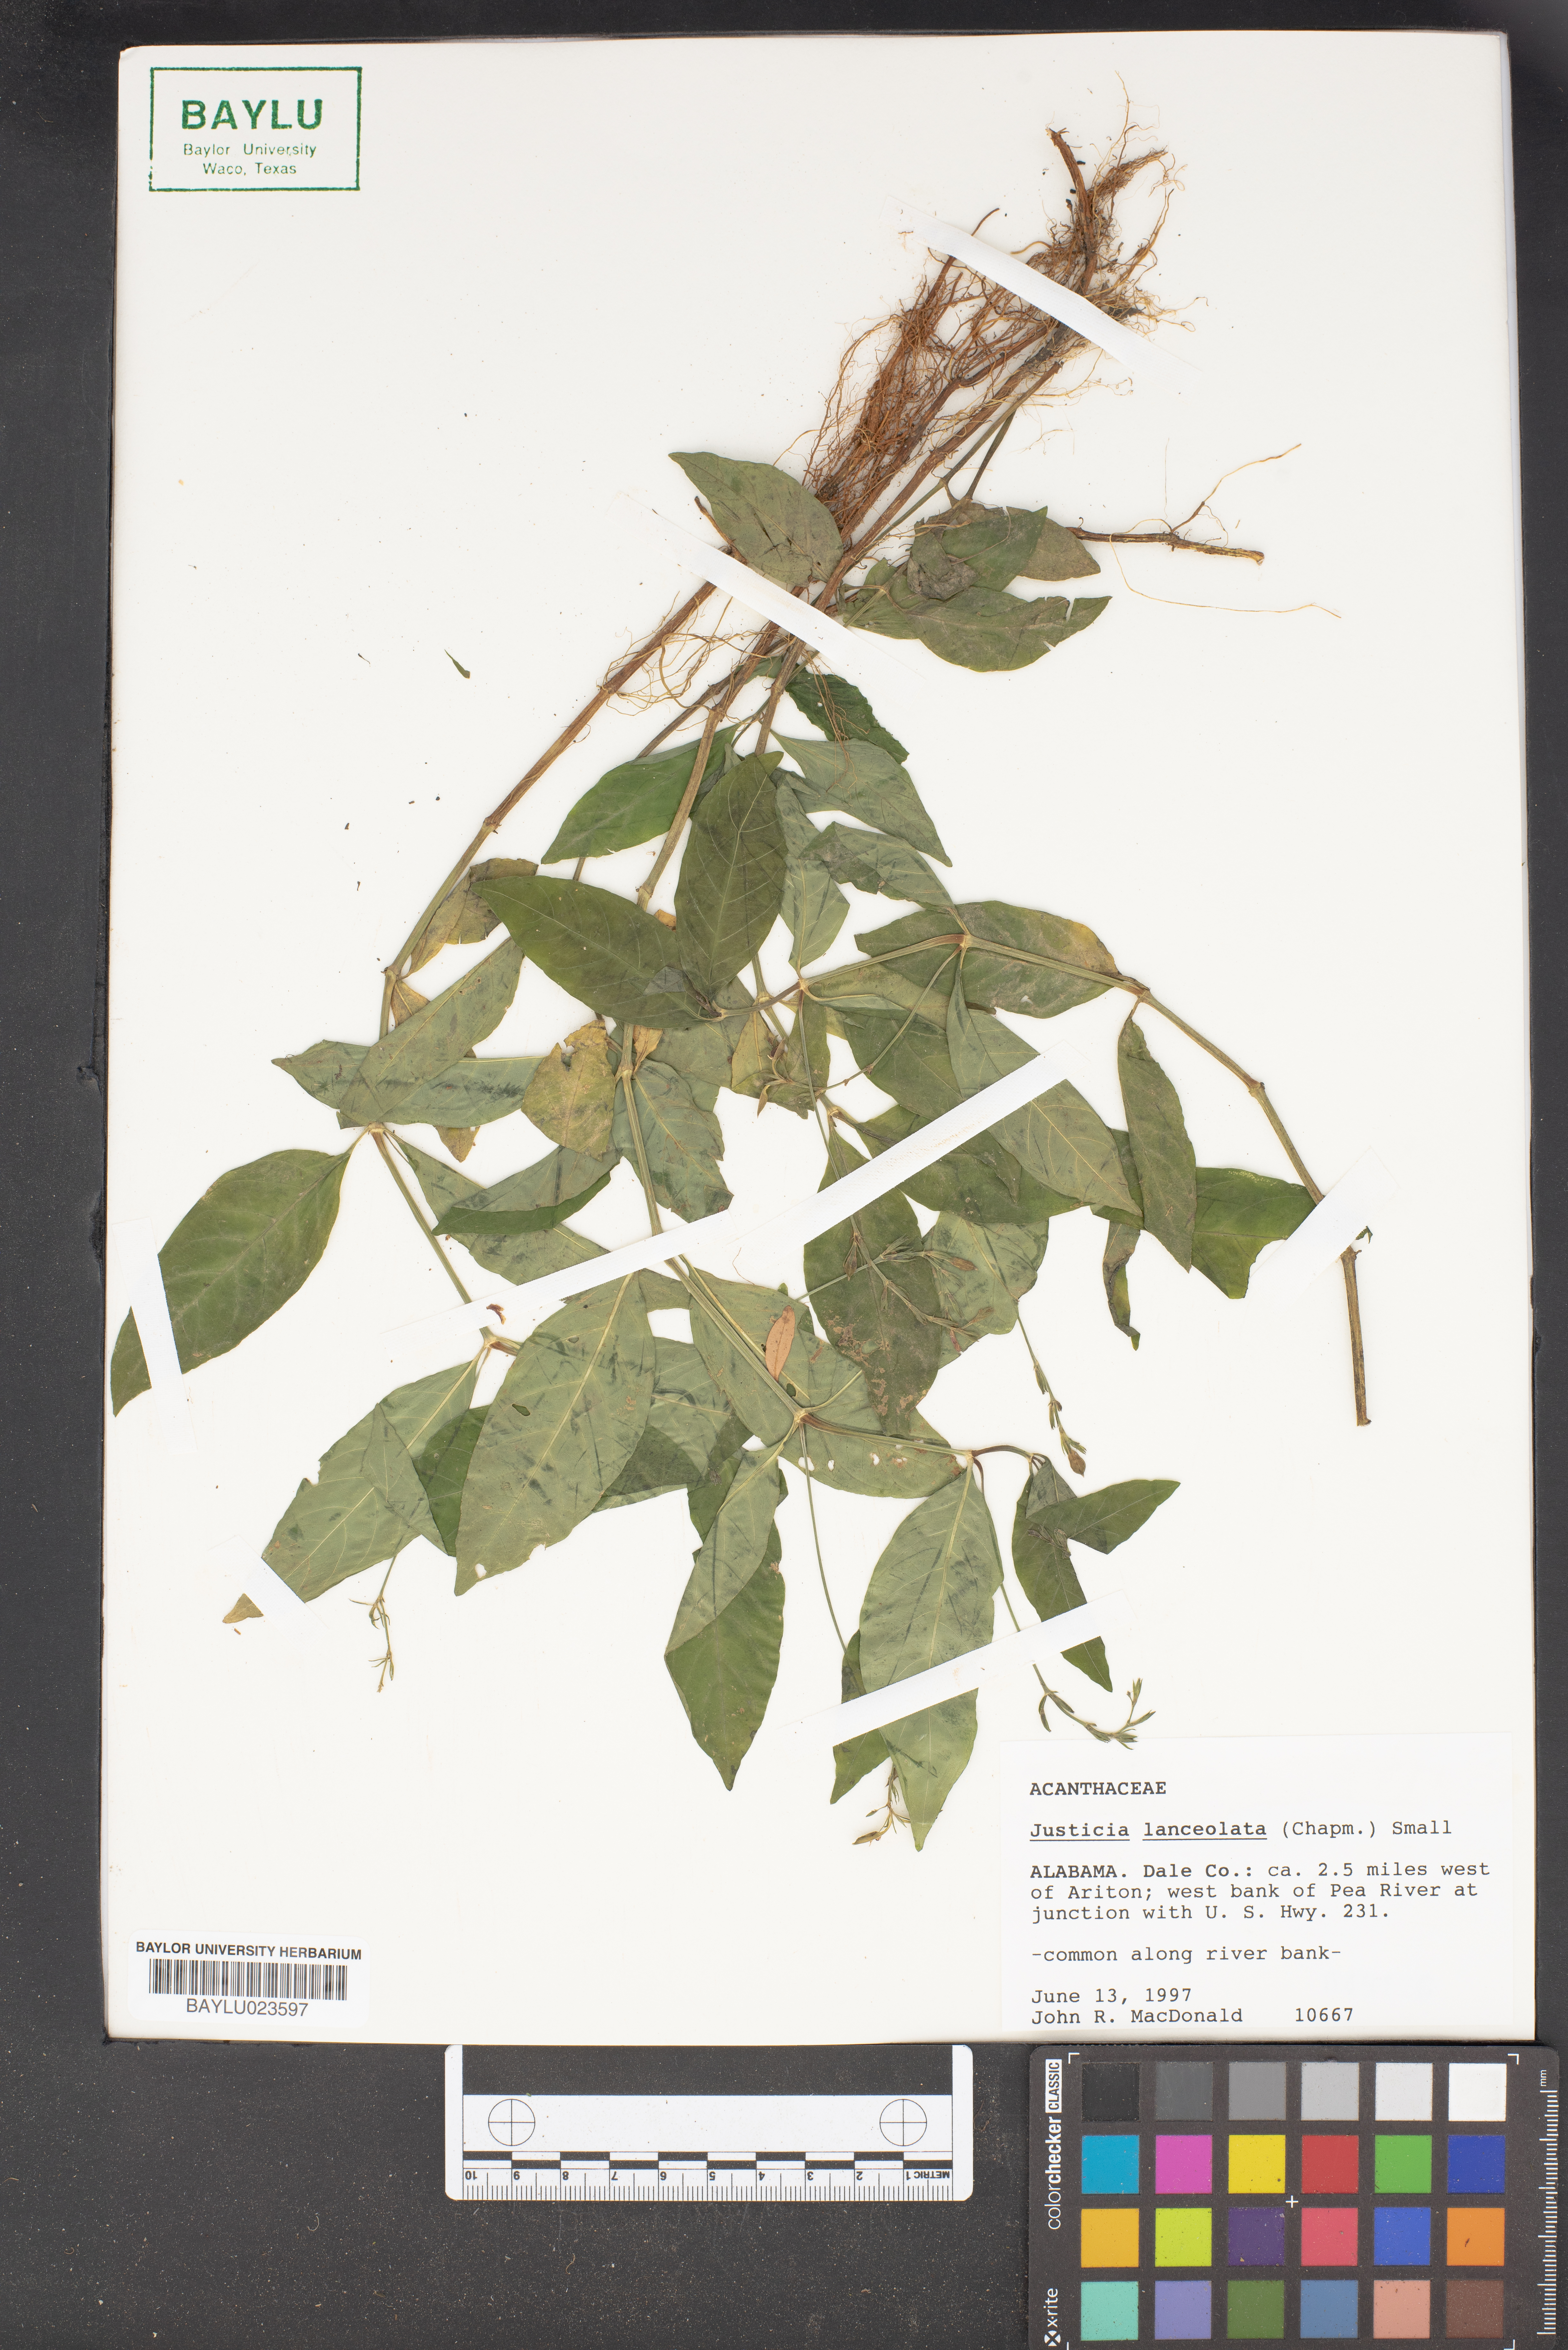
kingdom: Plantae
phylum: Tracheophyta
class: Magnoliopsida
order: Lamiales
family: Acanthaceae
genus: Justicia
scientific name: Justicia lanceolata
